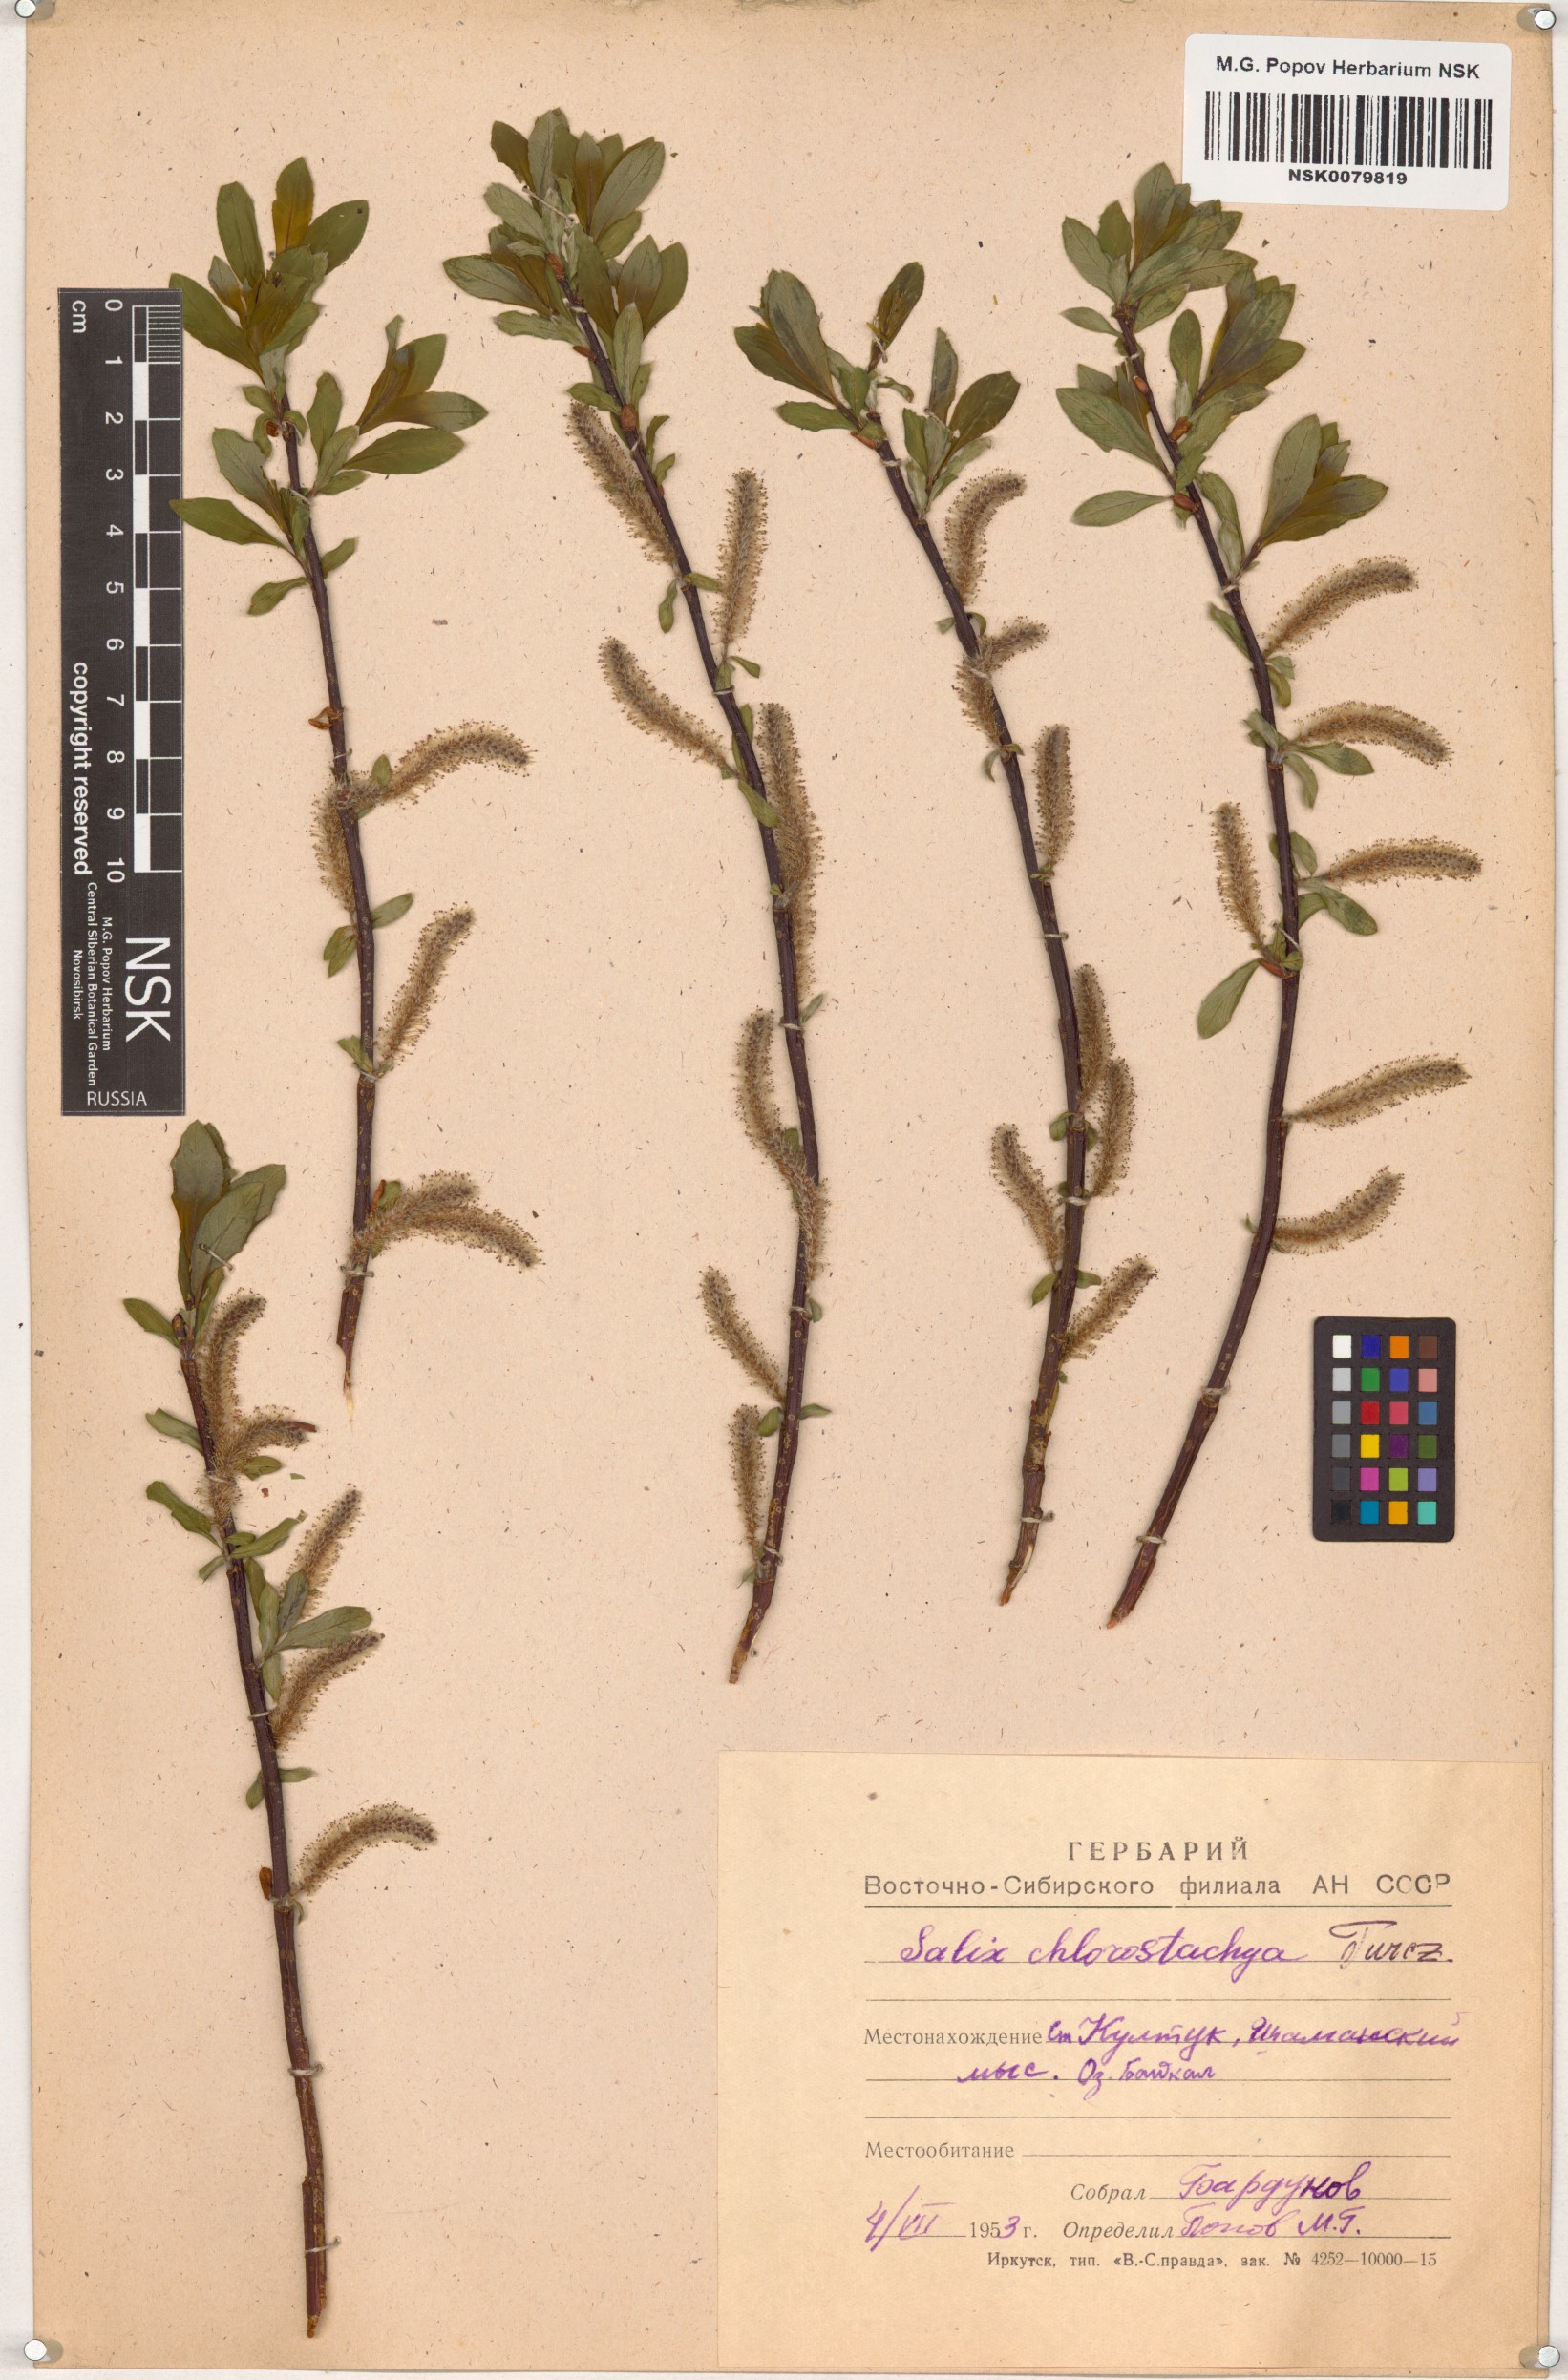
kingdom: Plantae
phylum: Tracheophyta
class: Magnoliopsida
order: Malpighiales
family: Salicaceae
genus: Salix
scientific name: Salix rhamnifolia
